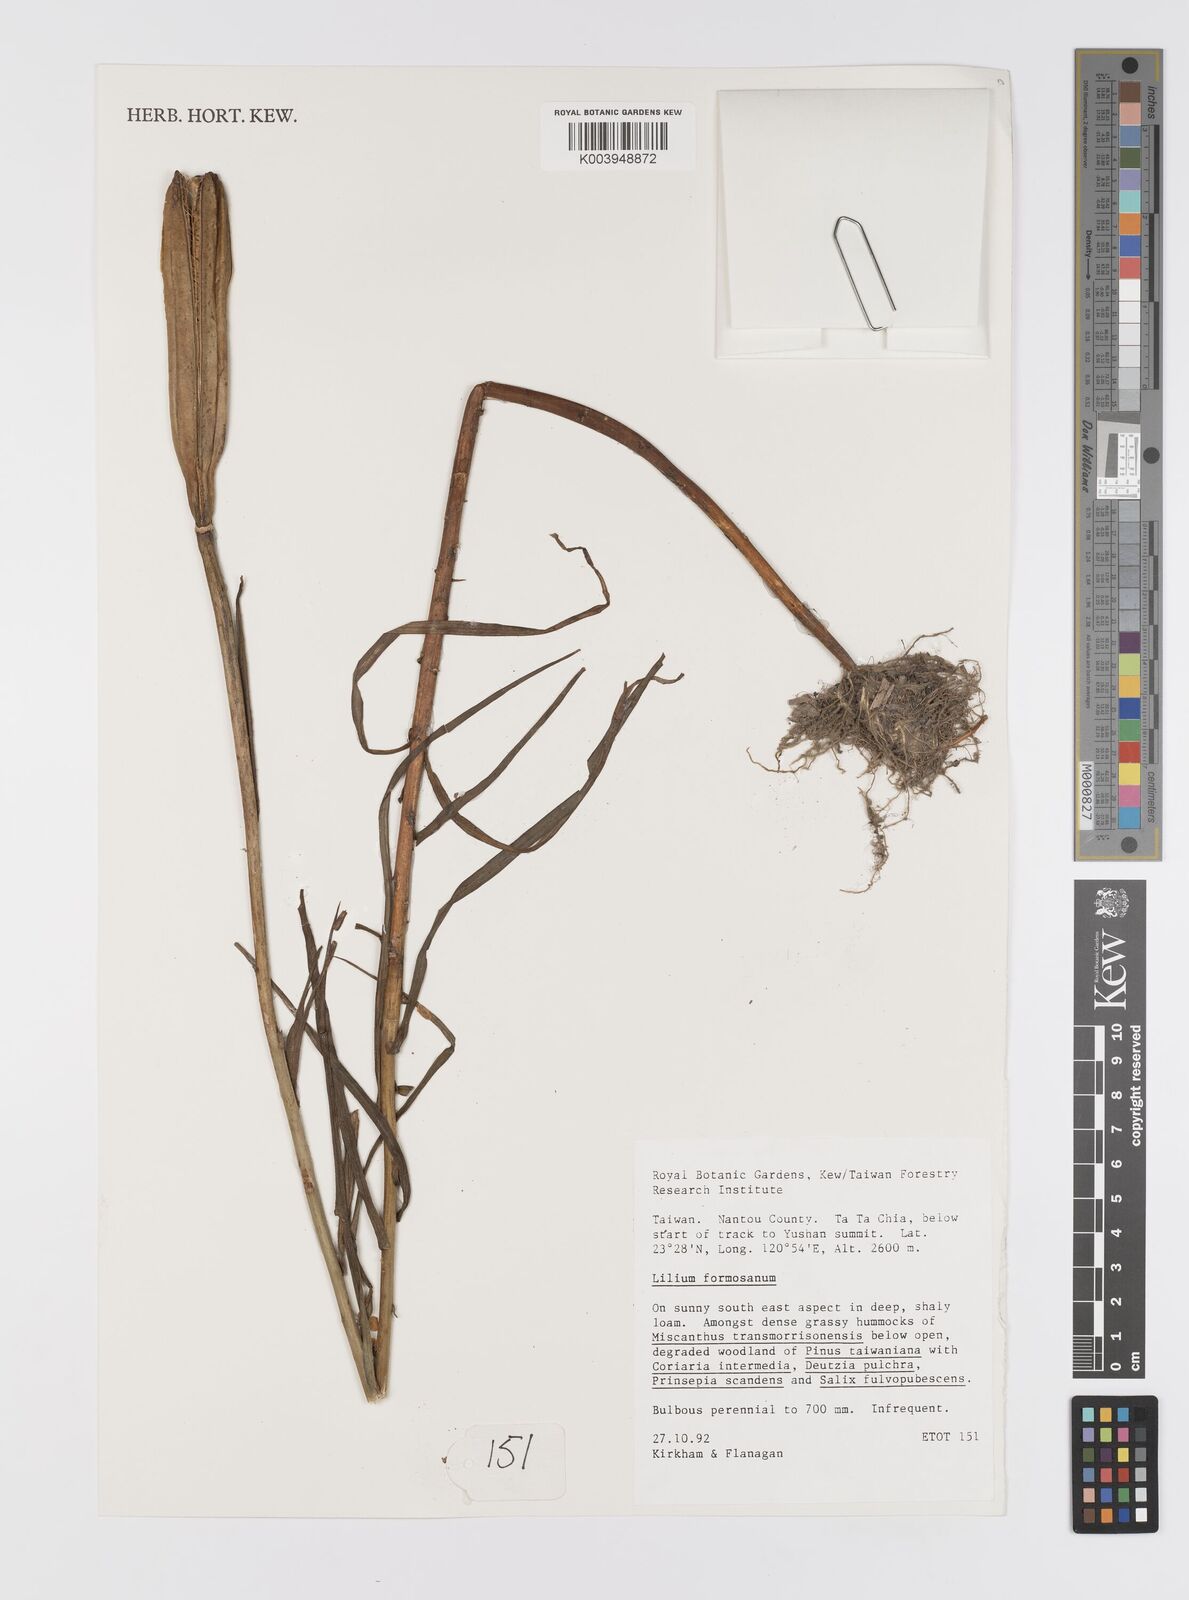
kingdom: Plantae
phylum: Tracheophyta
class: Liliopsida
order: Liliales
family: Liliaceae
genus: Lilium
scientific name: Lilium formosanum
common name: Formosa lily
